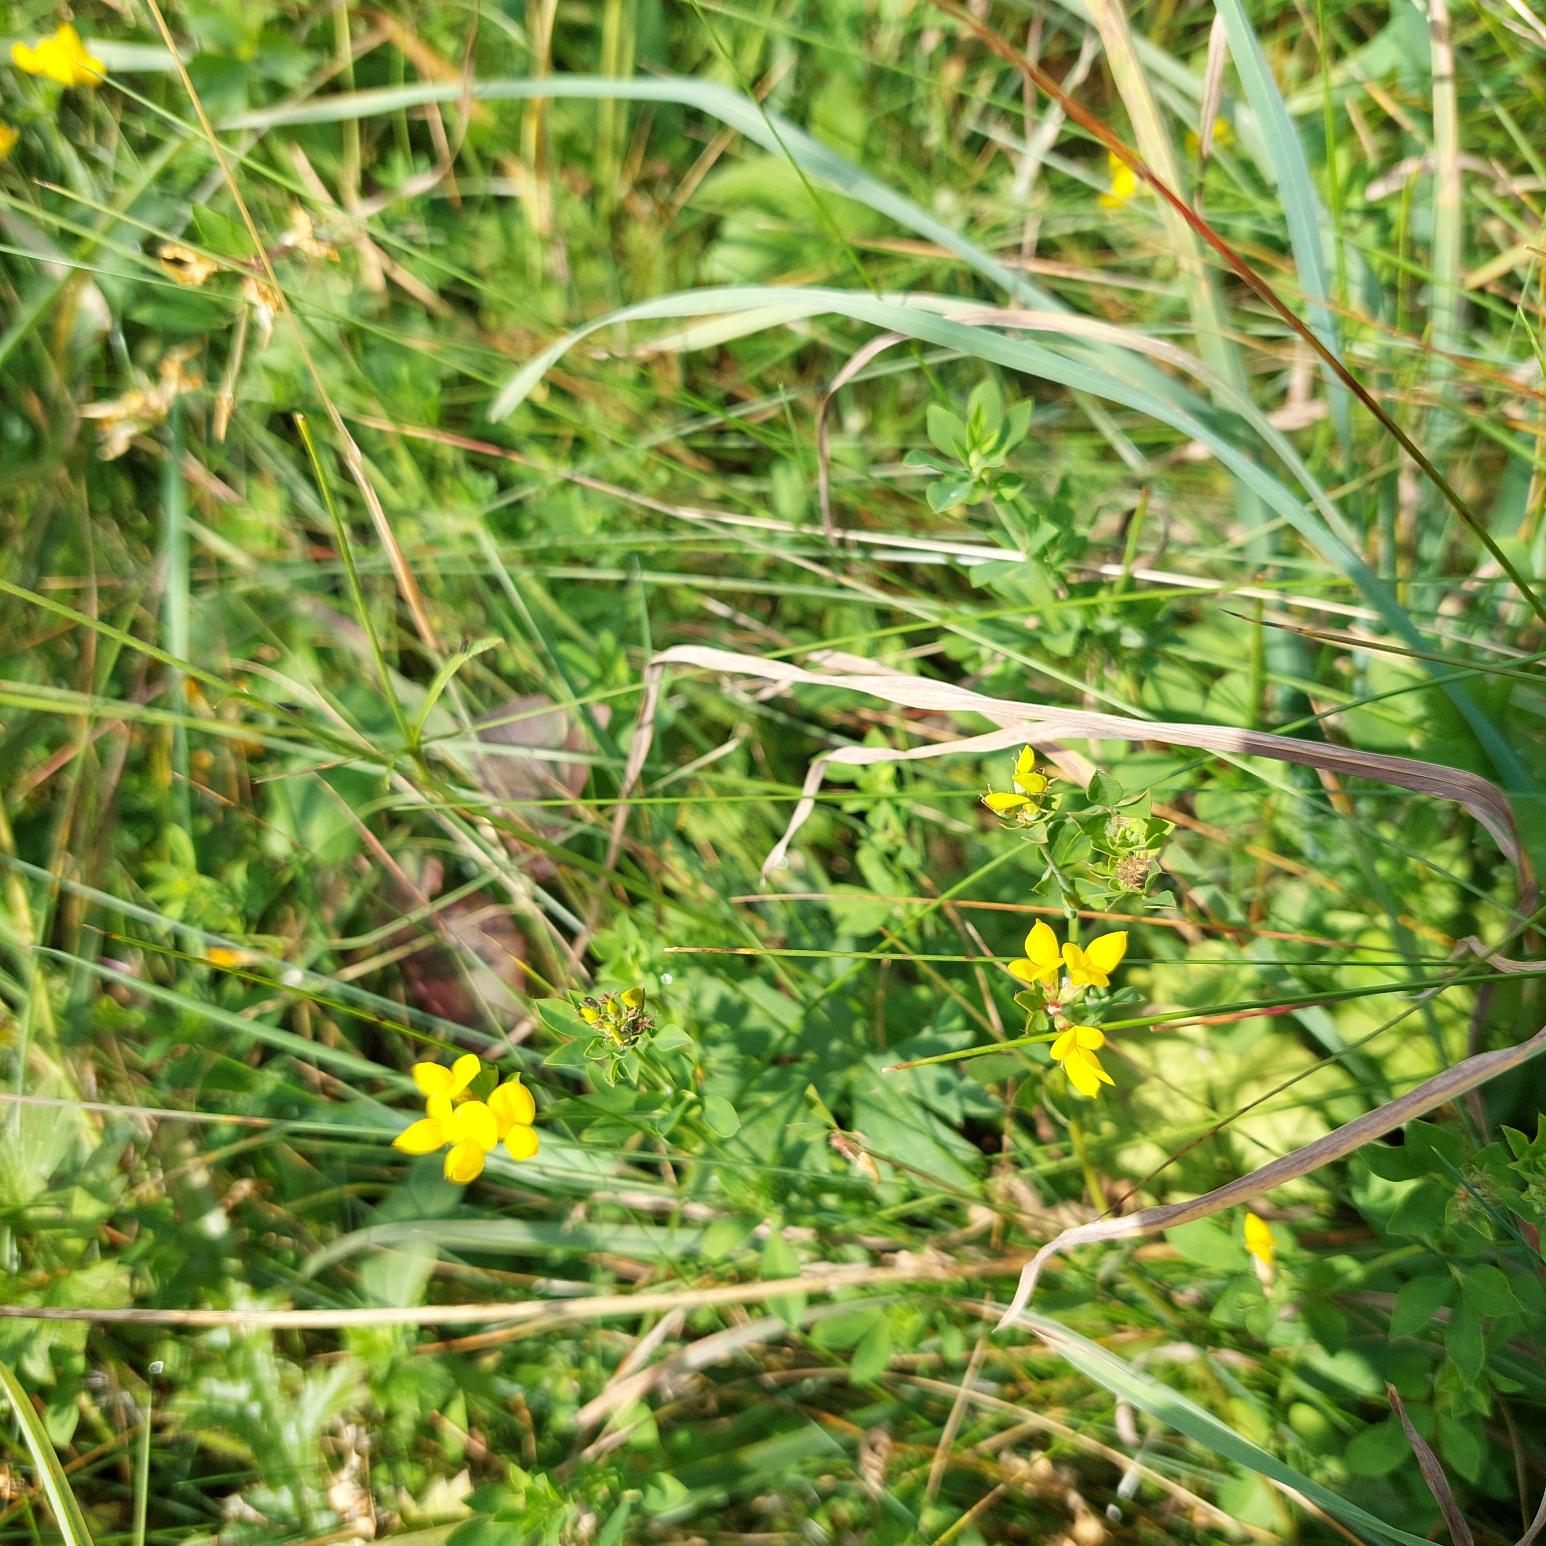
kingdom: Plantae
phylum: Tracheophyta
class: Magnoliopsida
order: Fabales
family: Fabaceae
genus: Lotus
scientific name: Lotus corniculatus
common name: Almindelig kællingetand
